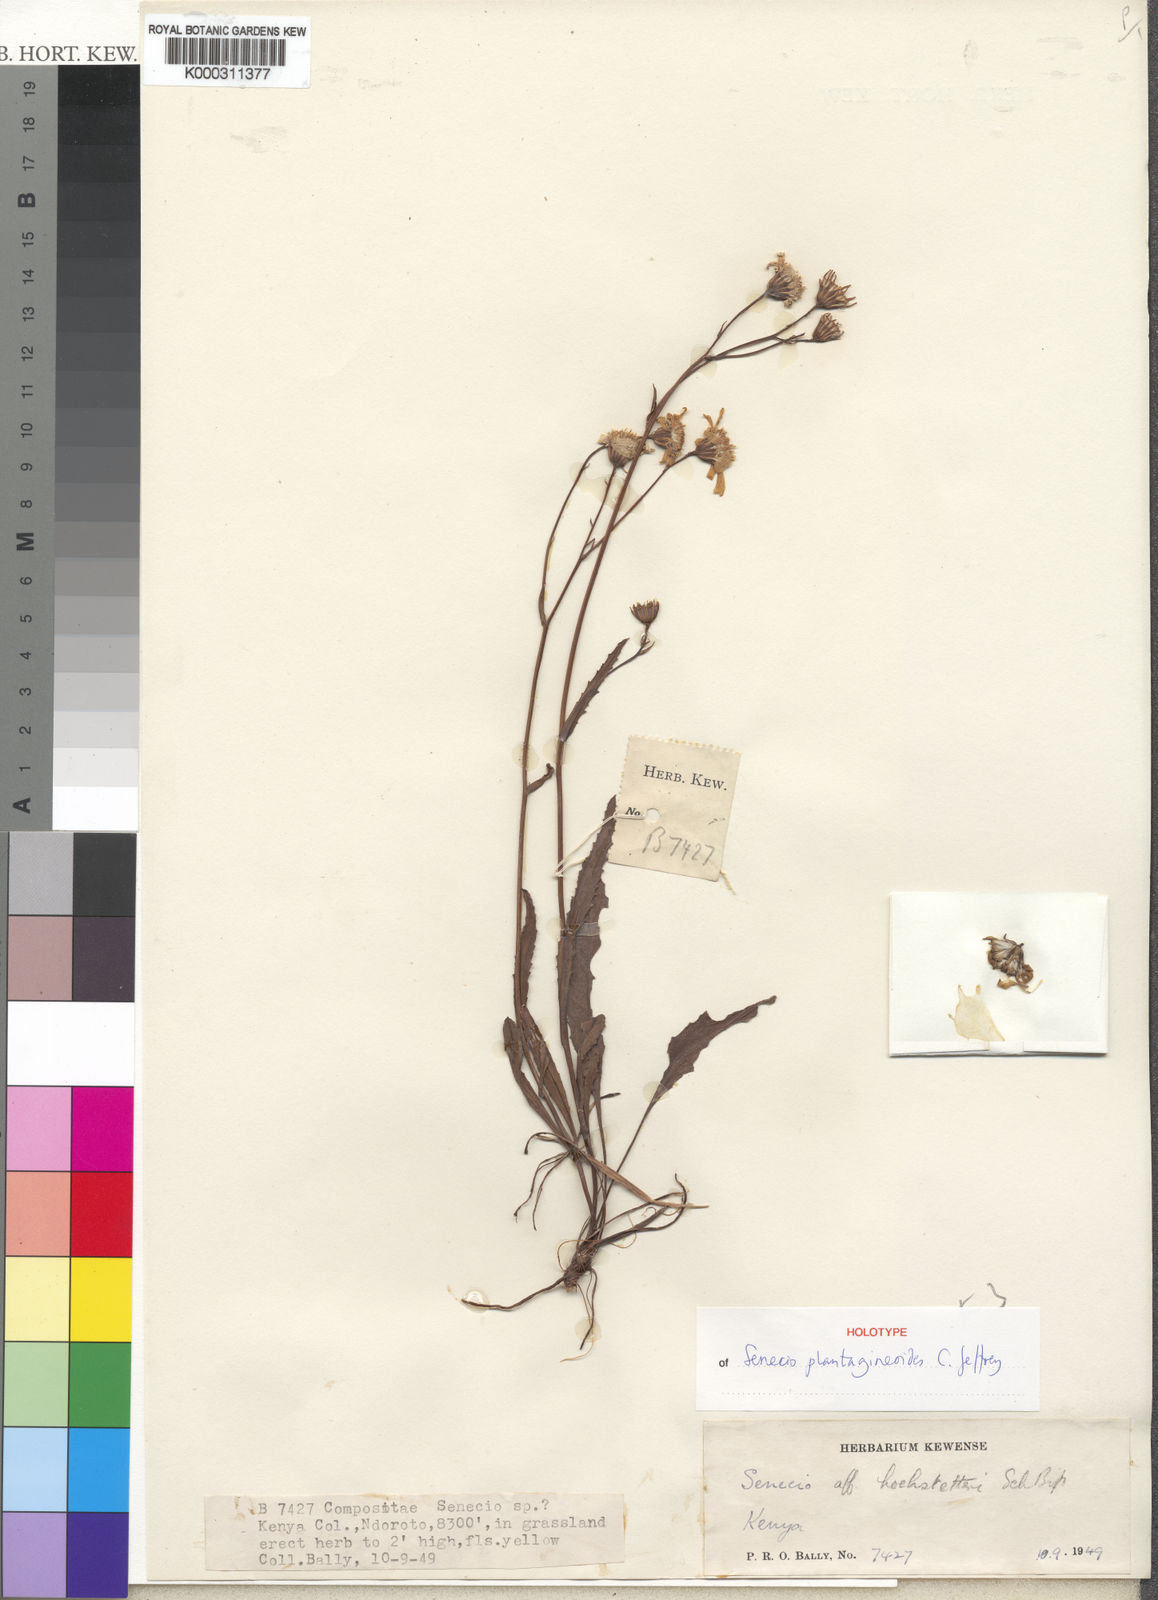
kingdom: Plantae
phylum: Tracheophyta
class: Magnoliopsida
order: Asterales
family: Asteraceae
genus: Senecio
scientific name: Senecio plantagineoides
